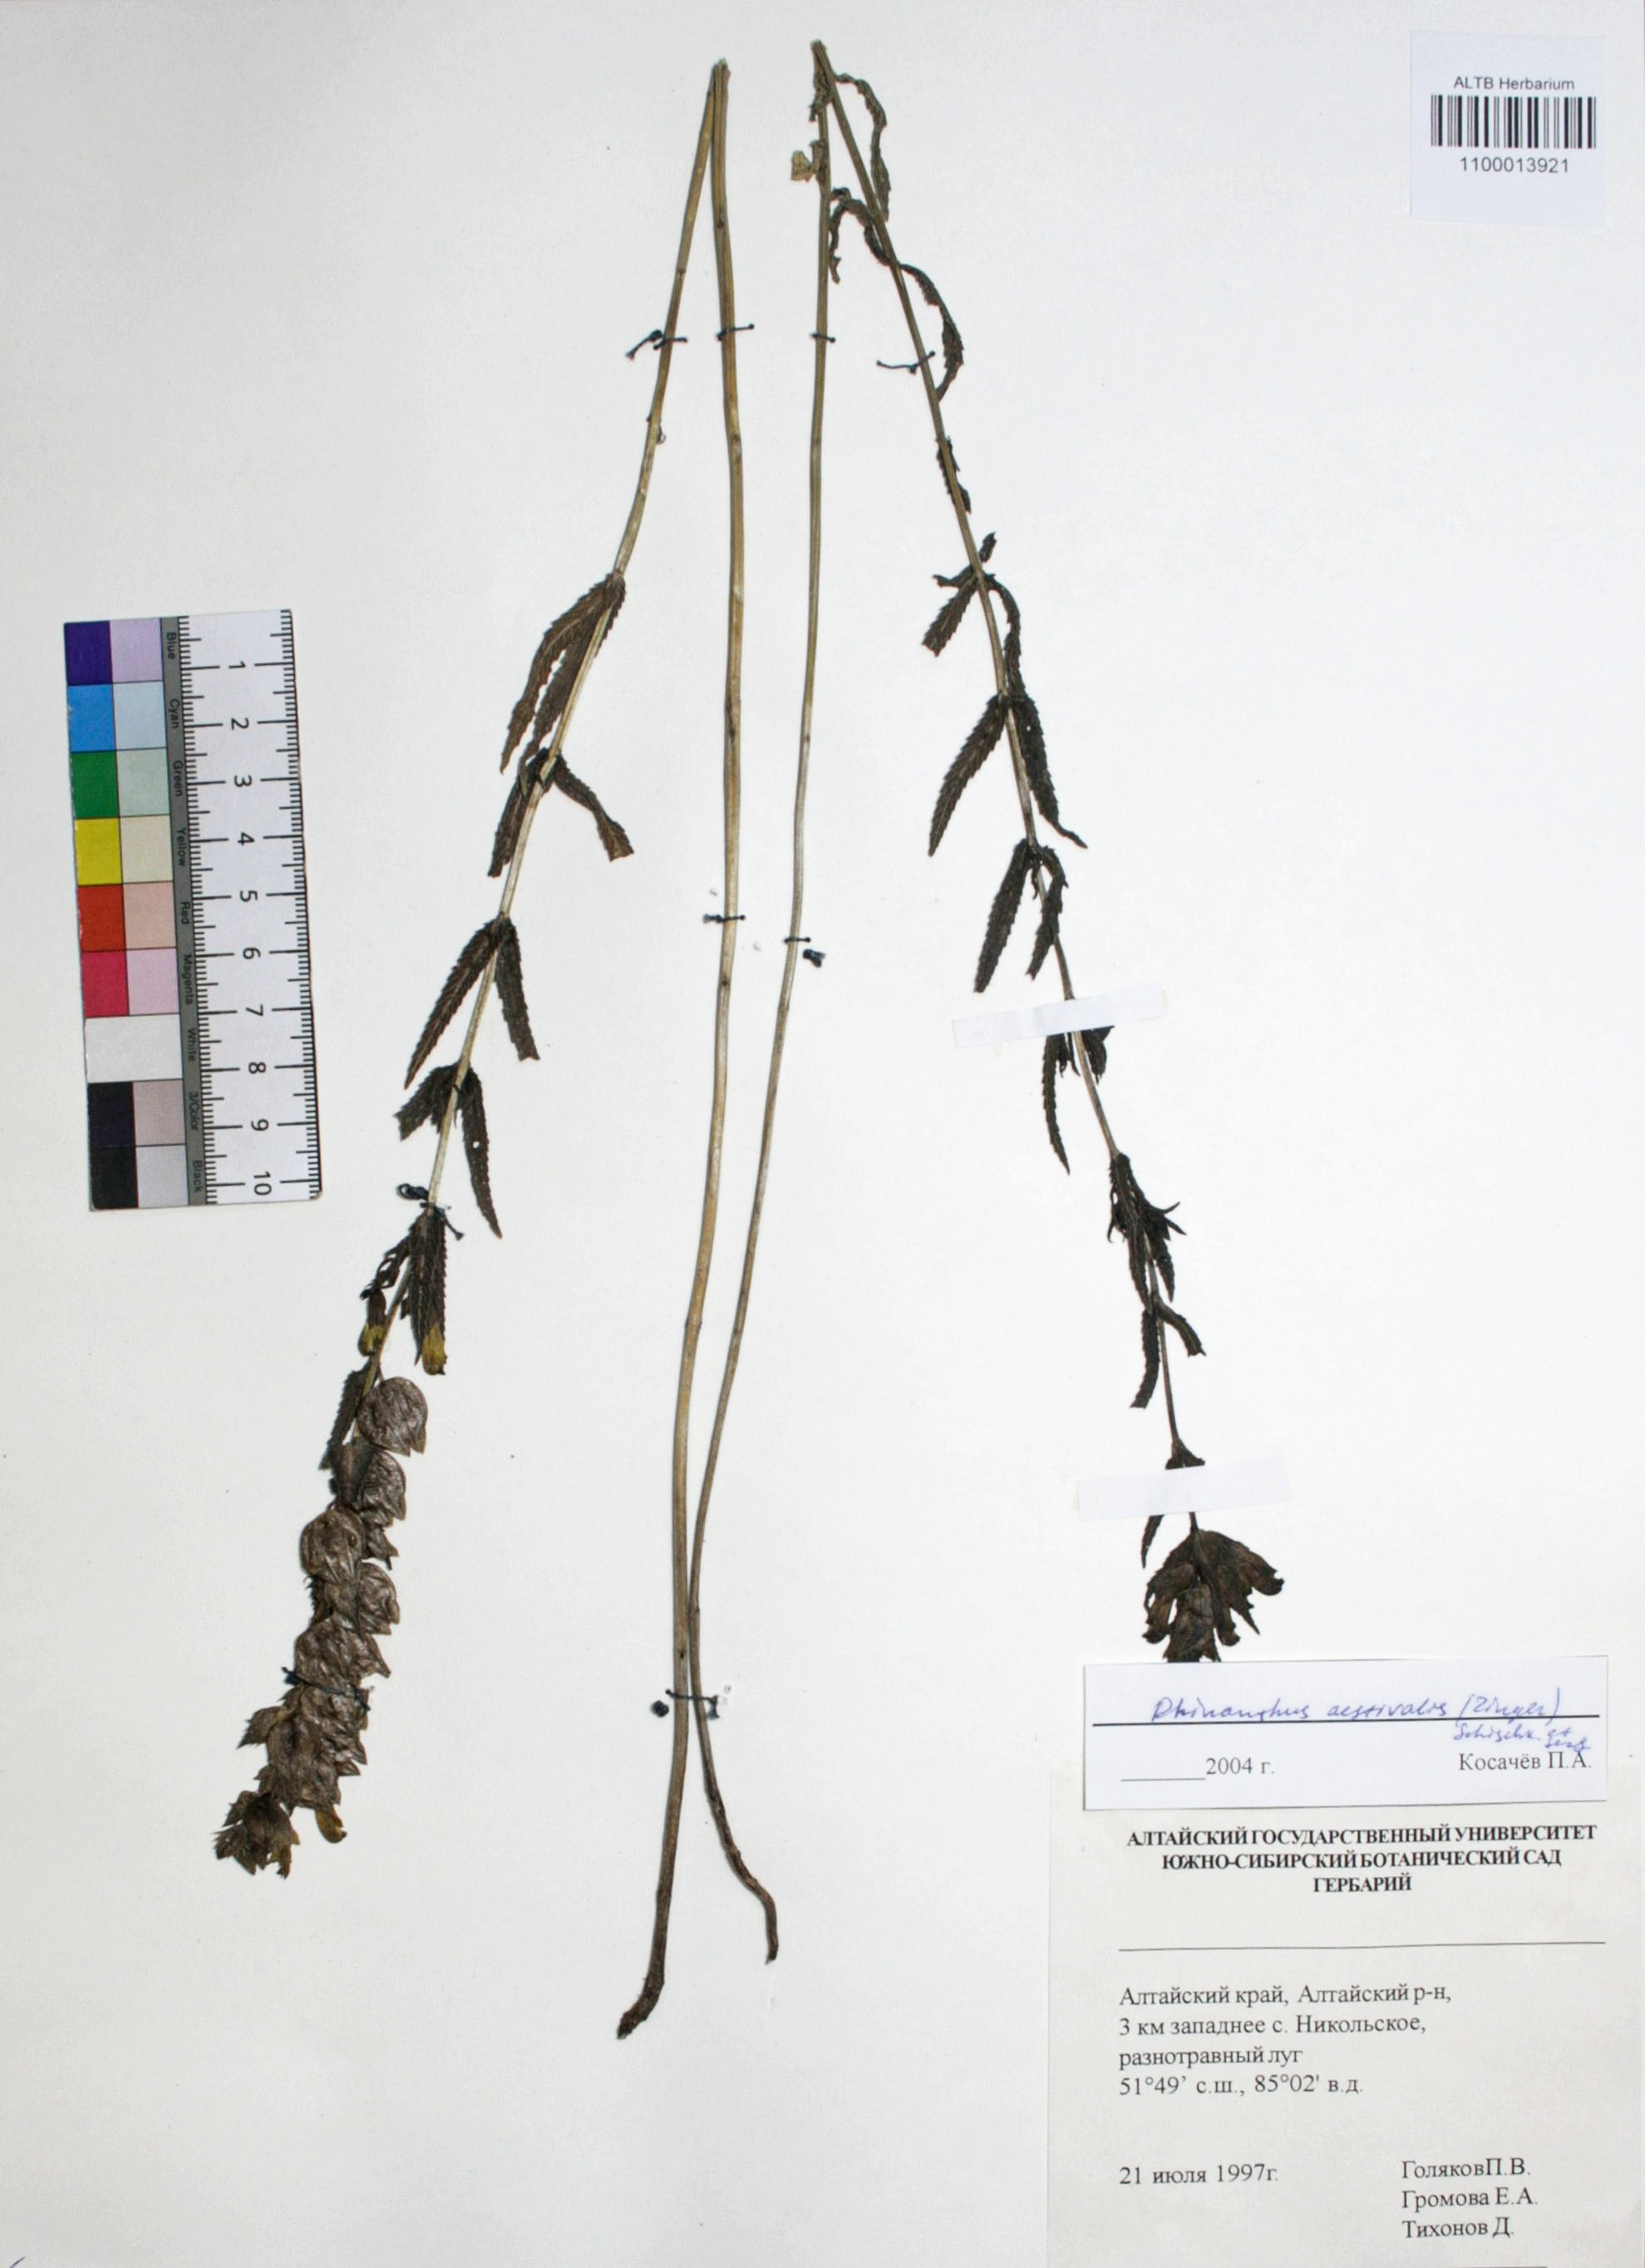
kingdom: Plantae
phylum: Tracheophyta
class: Magnoliopsida
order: Lamiales
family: Orobanchaceae
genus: Rhinanthus
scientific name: Rhinanthus serotinus
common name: Late-flowering yellow rattle
